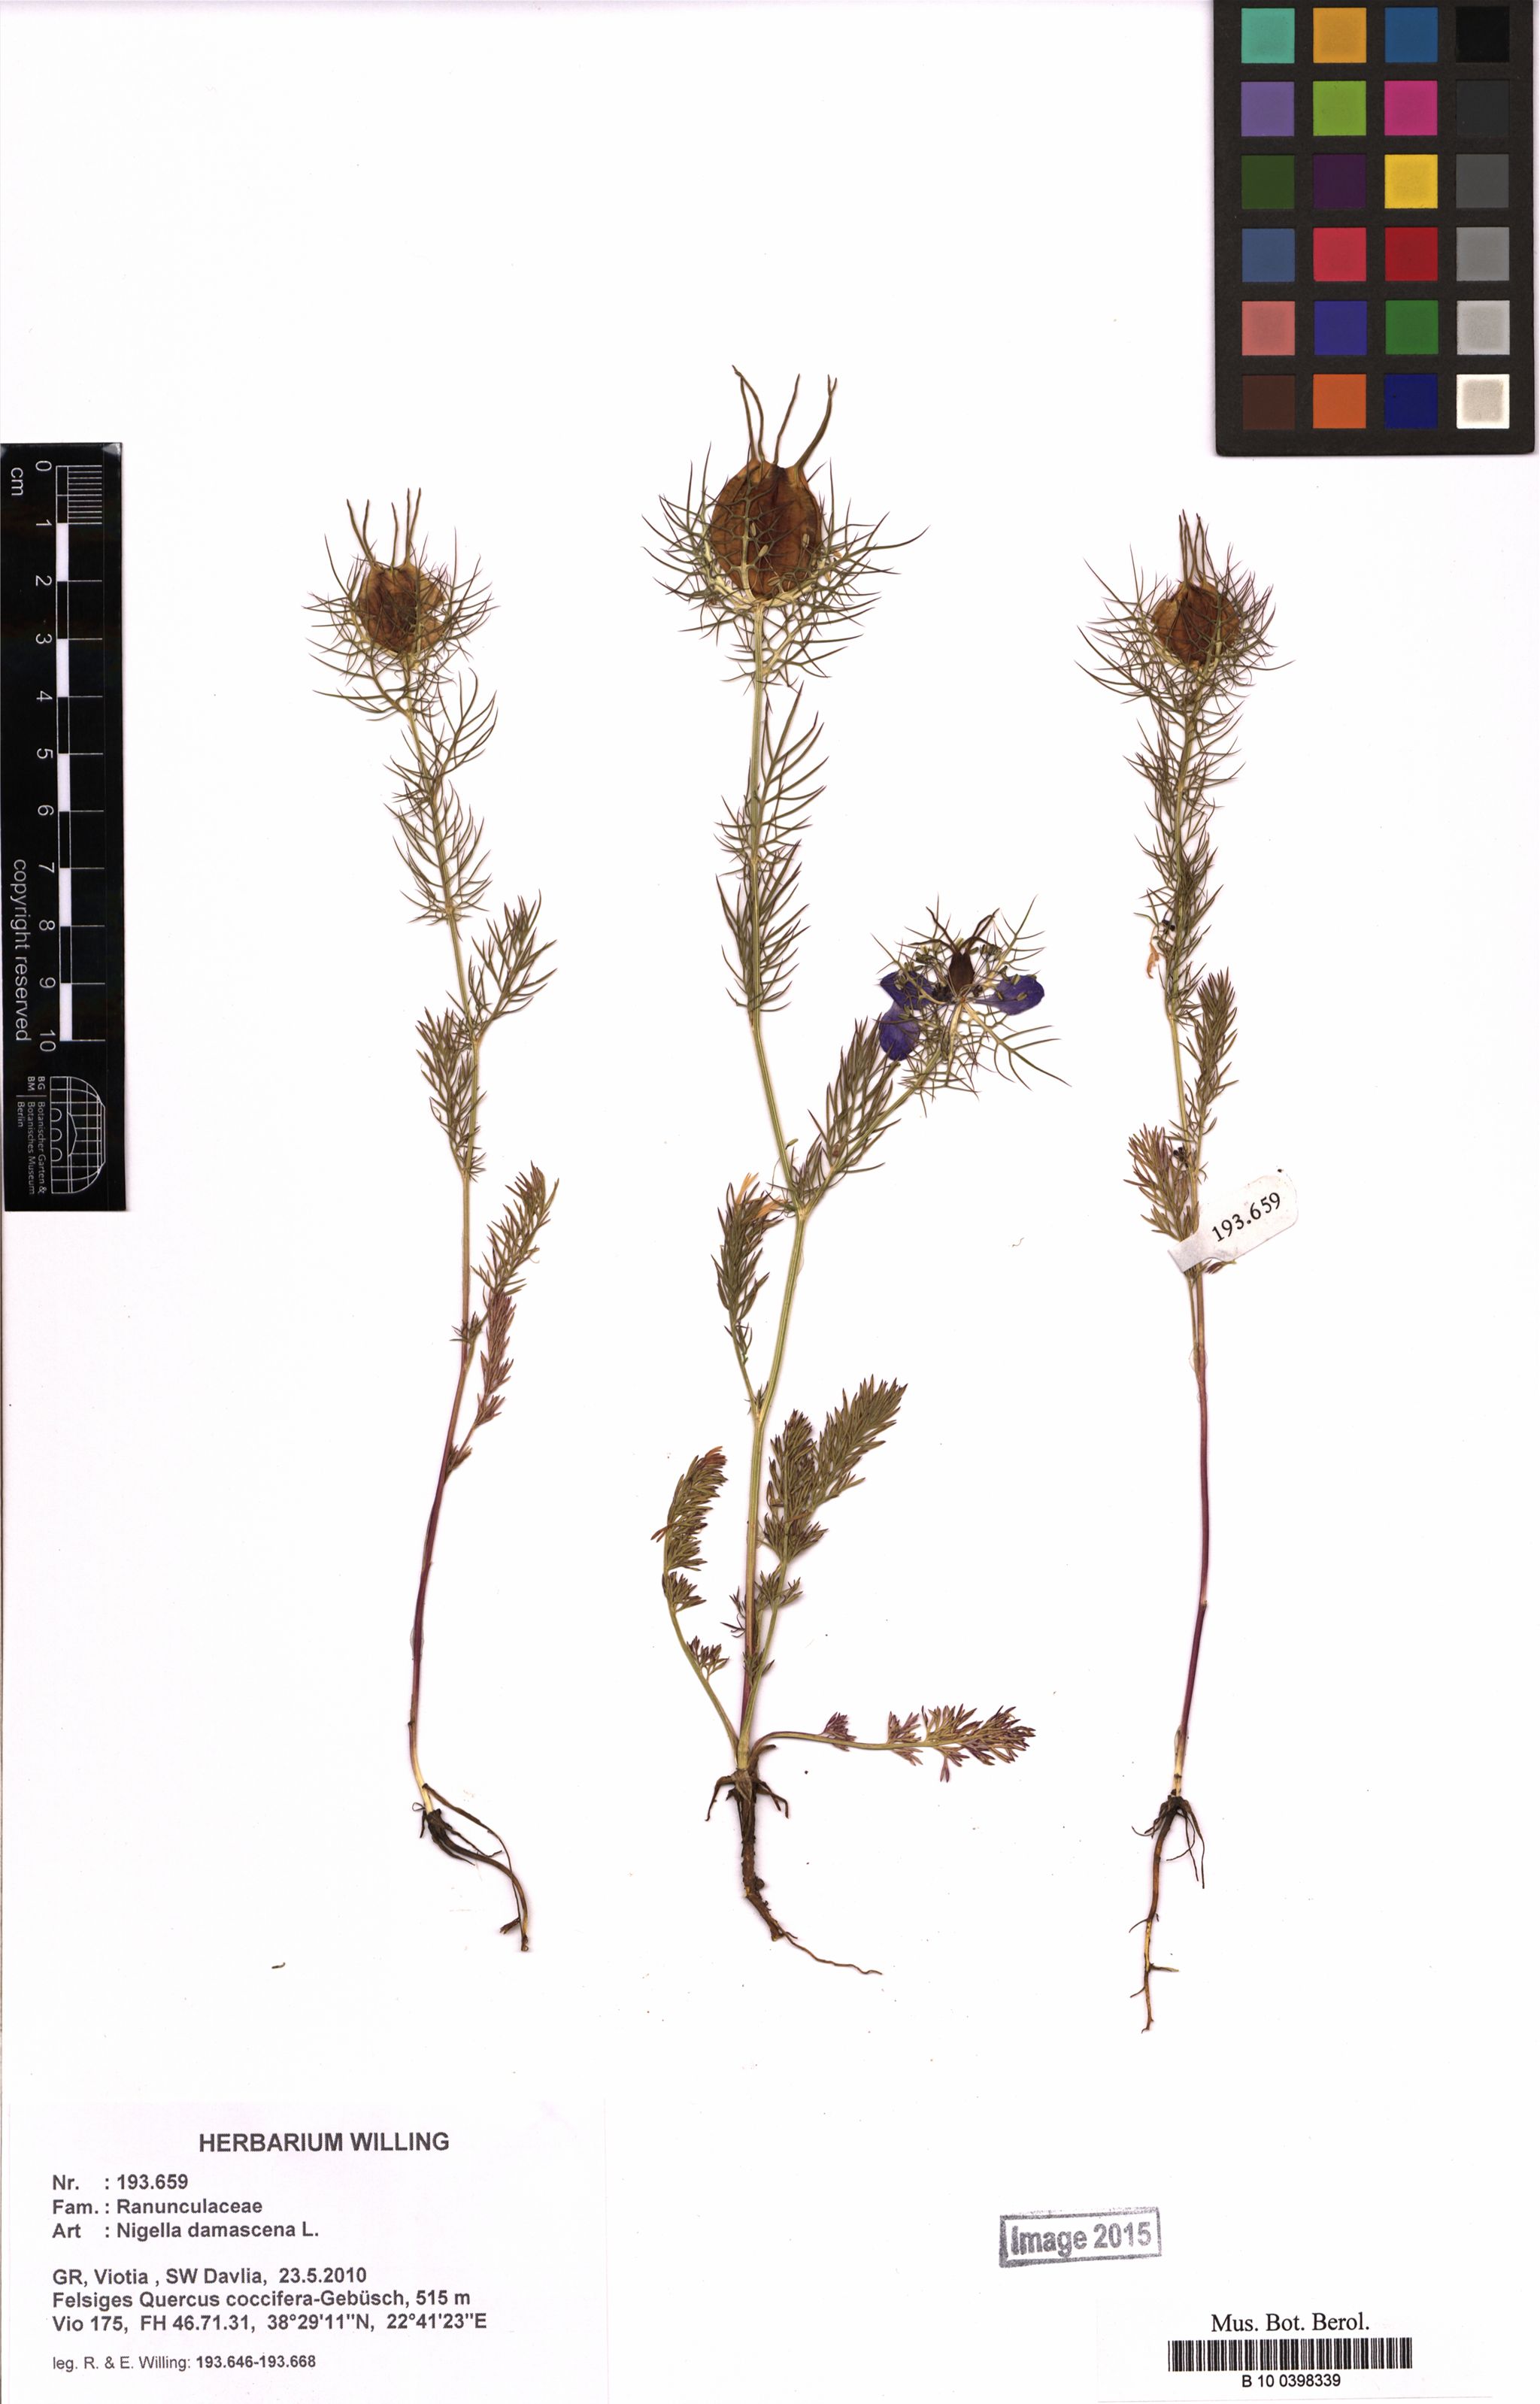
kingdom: Plantae
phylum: Tracheophyta
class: Magnoliopsida
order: Ranunculales
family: Ranunculaceae
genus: Nigella
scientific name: Nigella damascena
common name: Love-in-a-mist
